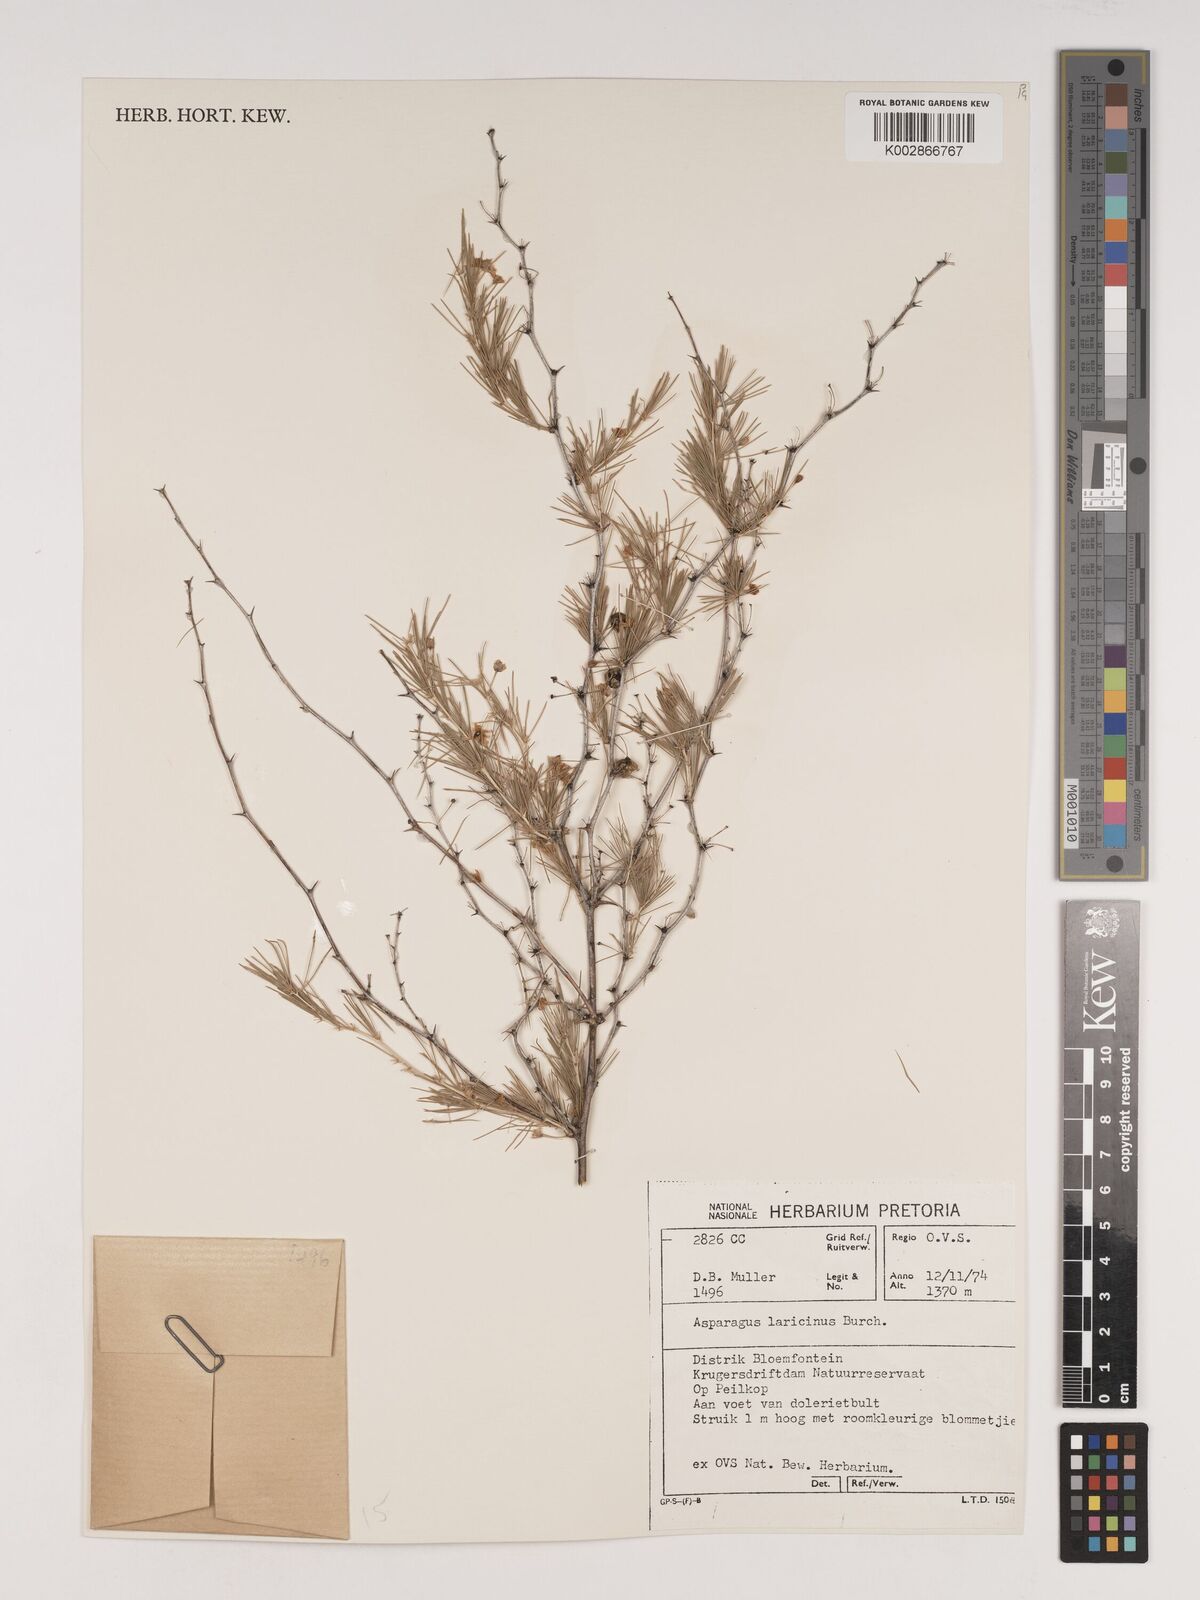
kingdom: Plantae
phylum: Tracheophyta
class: Liliopsida
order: Asparagales
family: Asparagaceae
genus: Asparagus
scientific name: Asparagus laricinus
